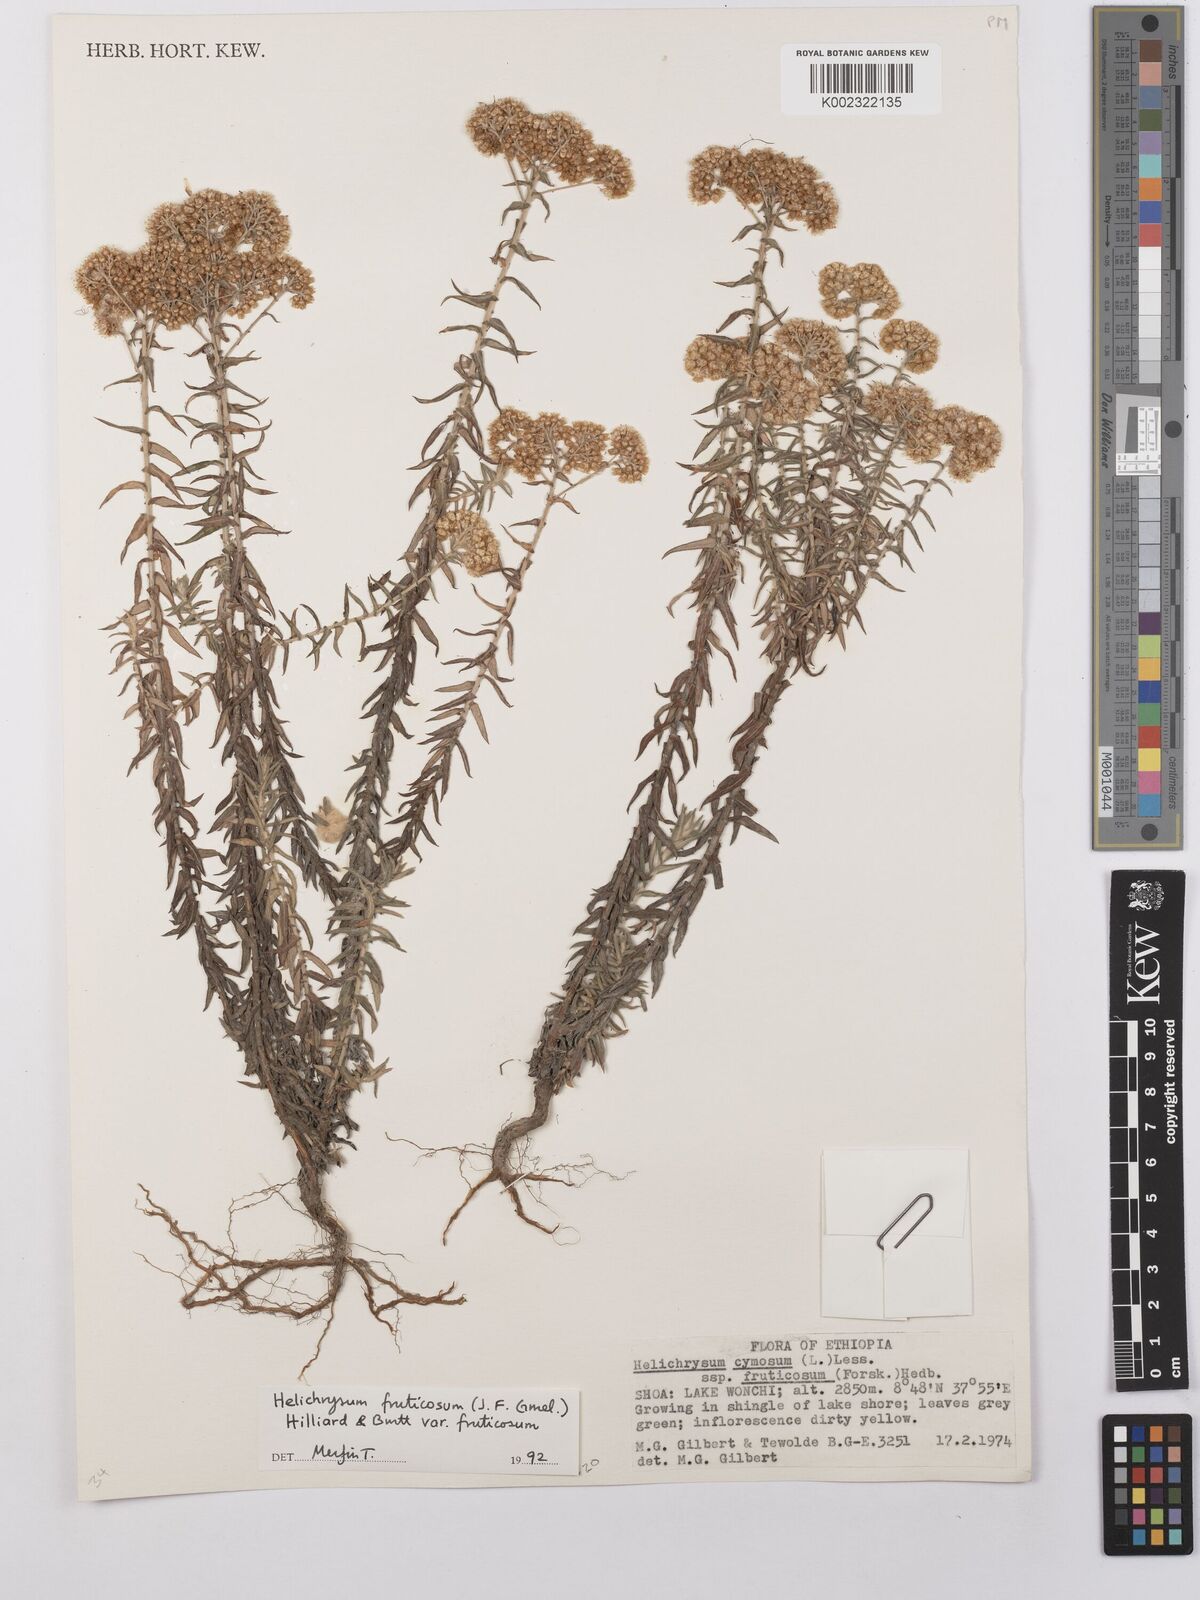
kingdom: Plantae
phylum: Tracheophyta
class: Magnoliopsida
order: Asterales
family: Asteraceae
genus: Helichrysum
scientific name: Helichrysum forskahlii
